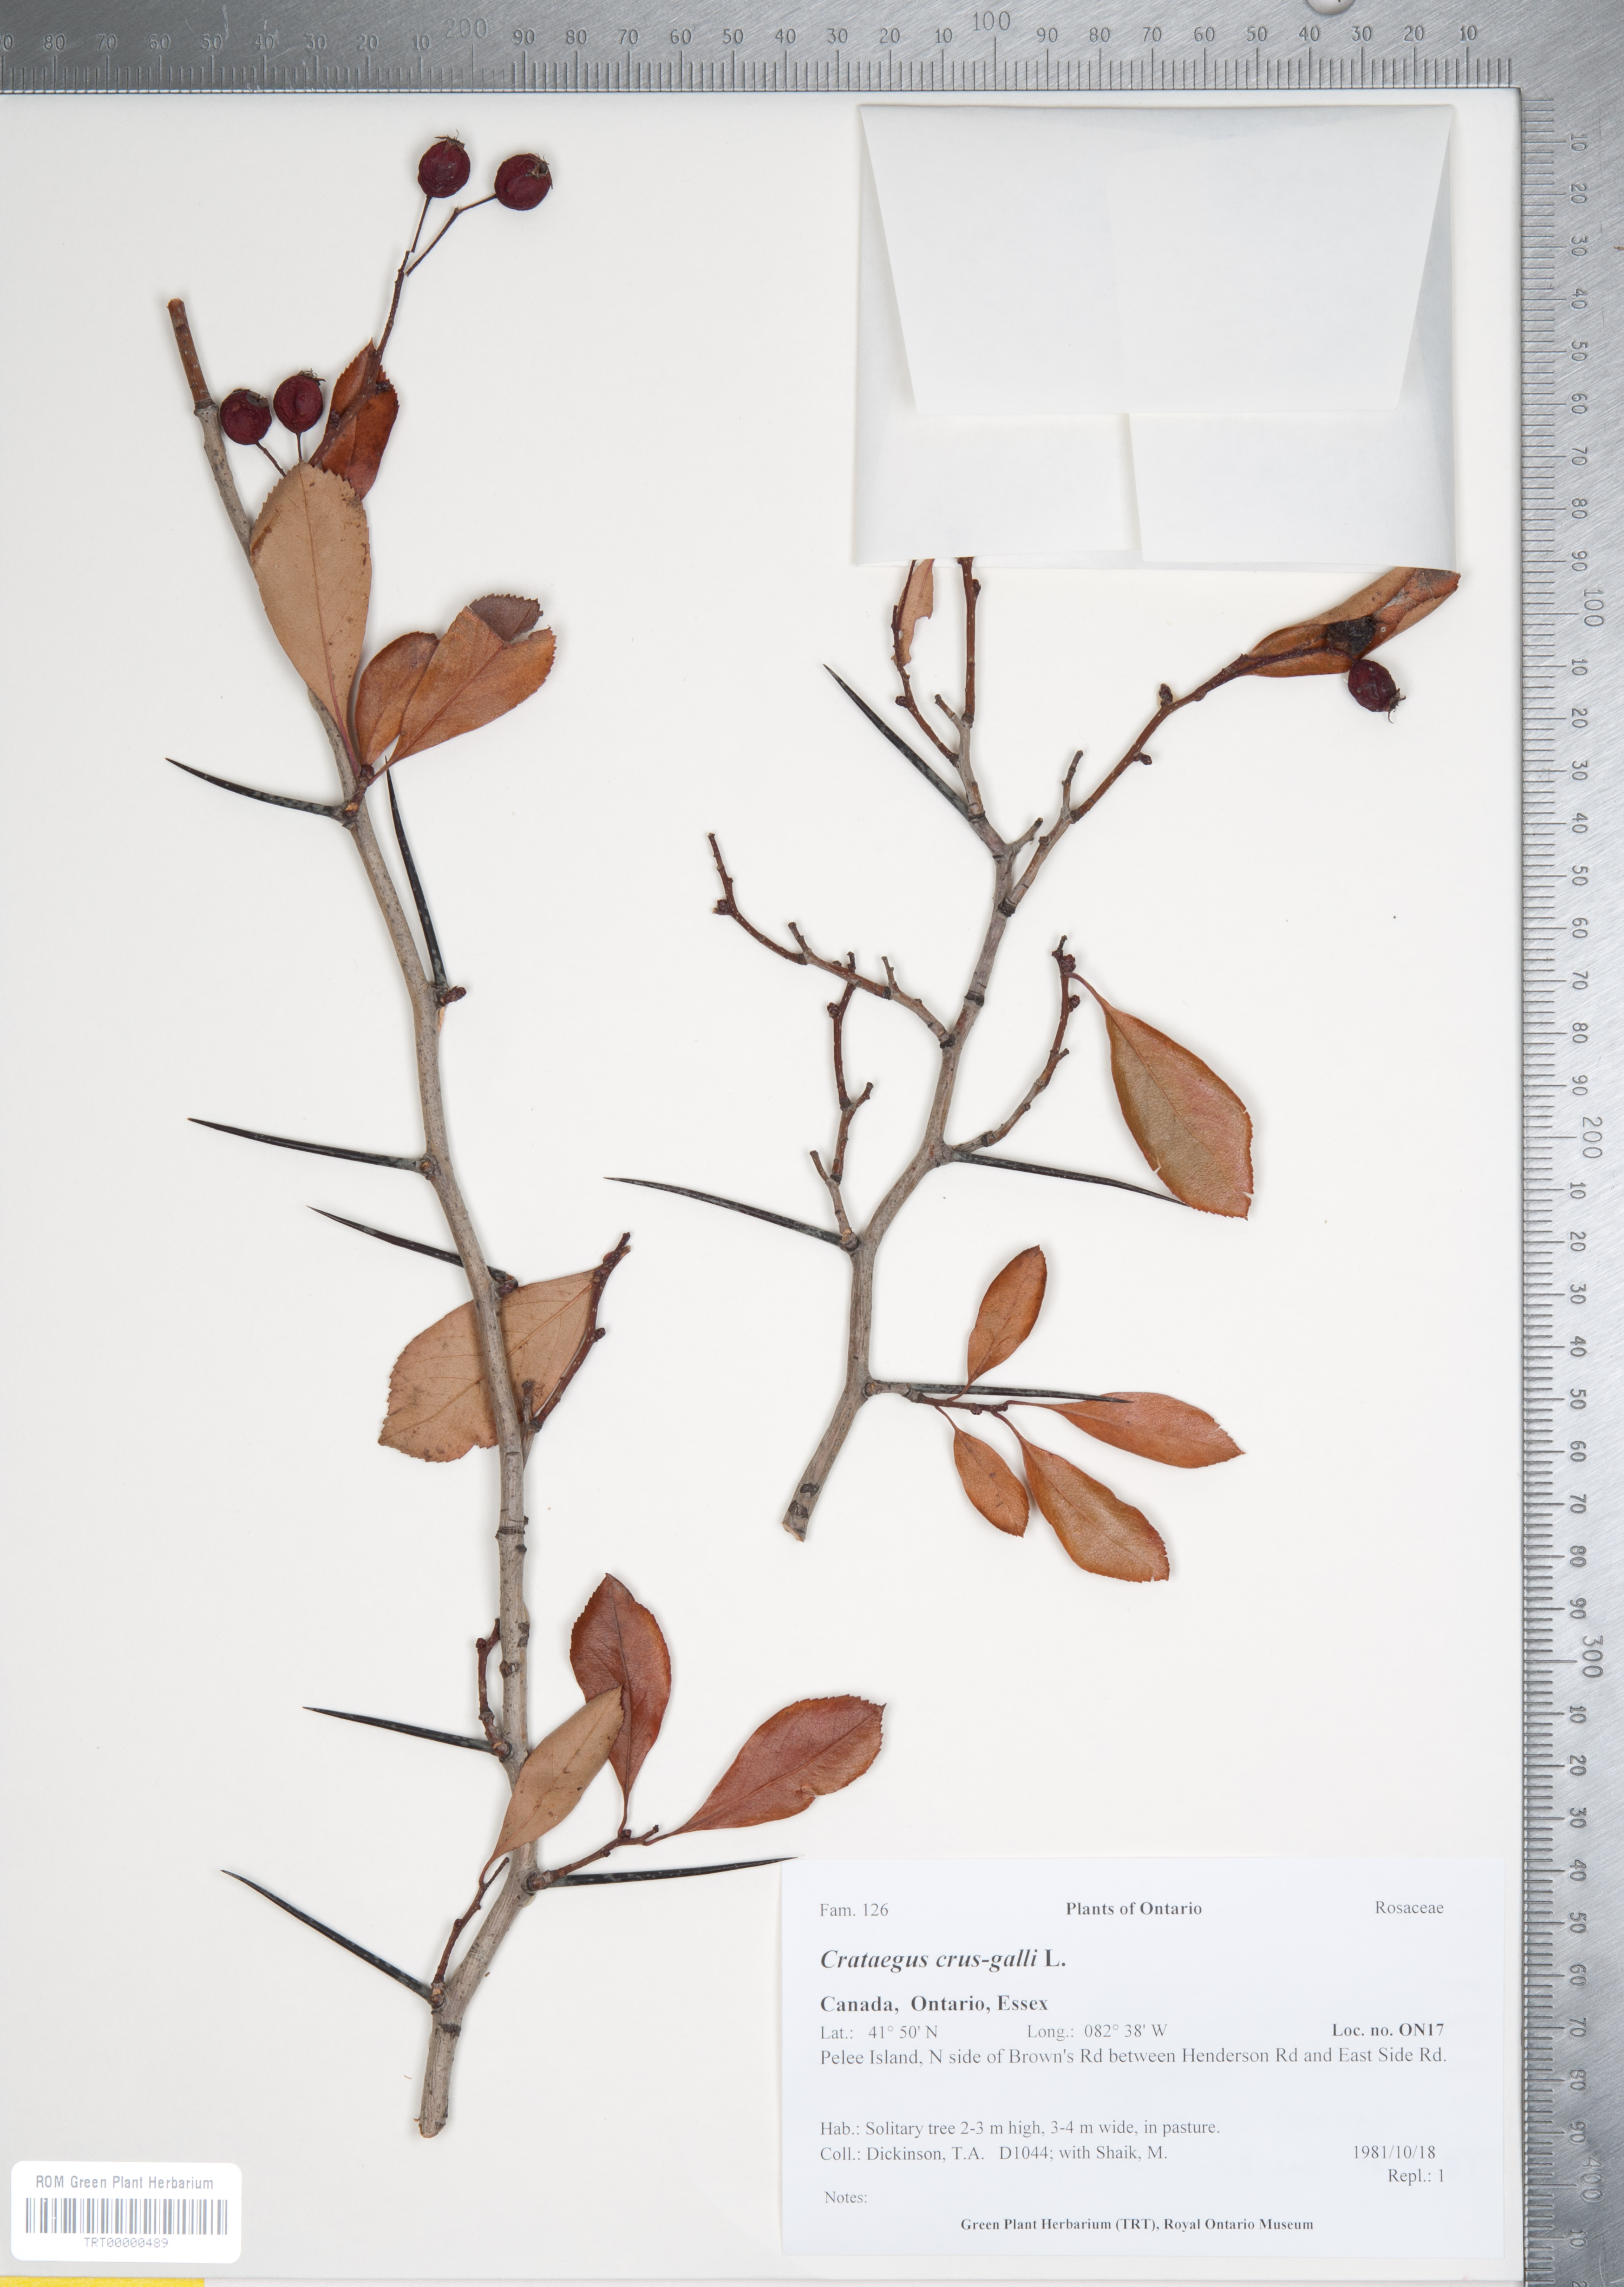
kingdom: Plantae
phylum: Tracheophyta
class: Magnoliopsida
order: Rosales
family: Rosaceae
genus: Crataegus
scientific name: Crataegus crus-galli
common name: Cockspurthorn
